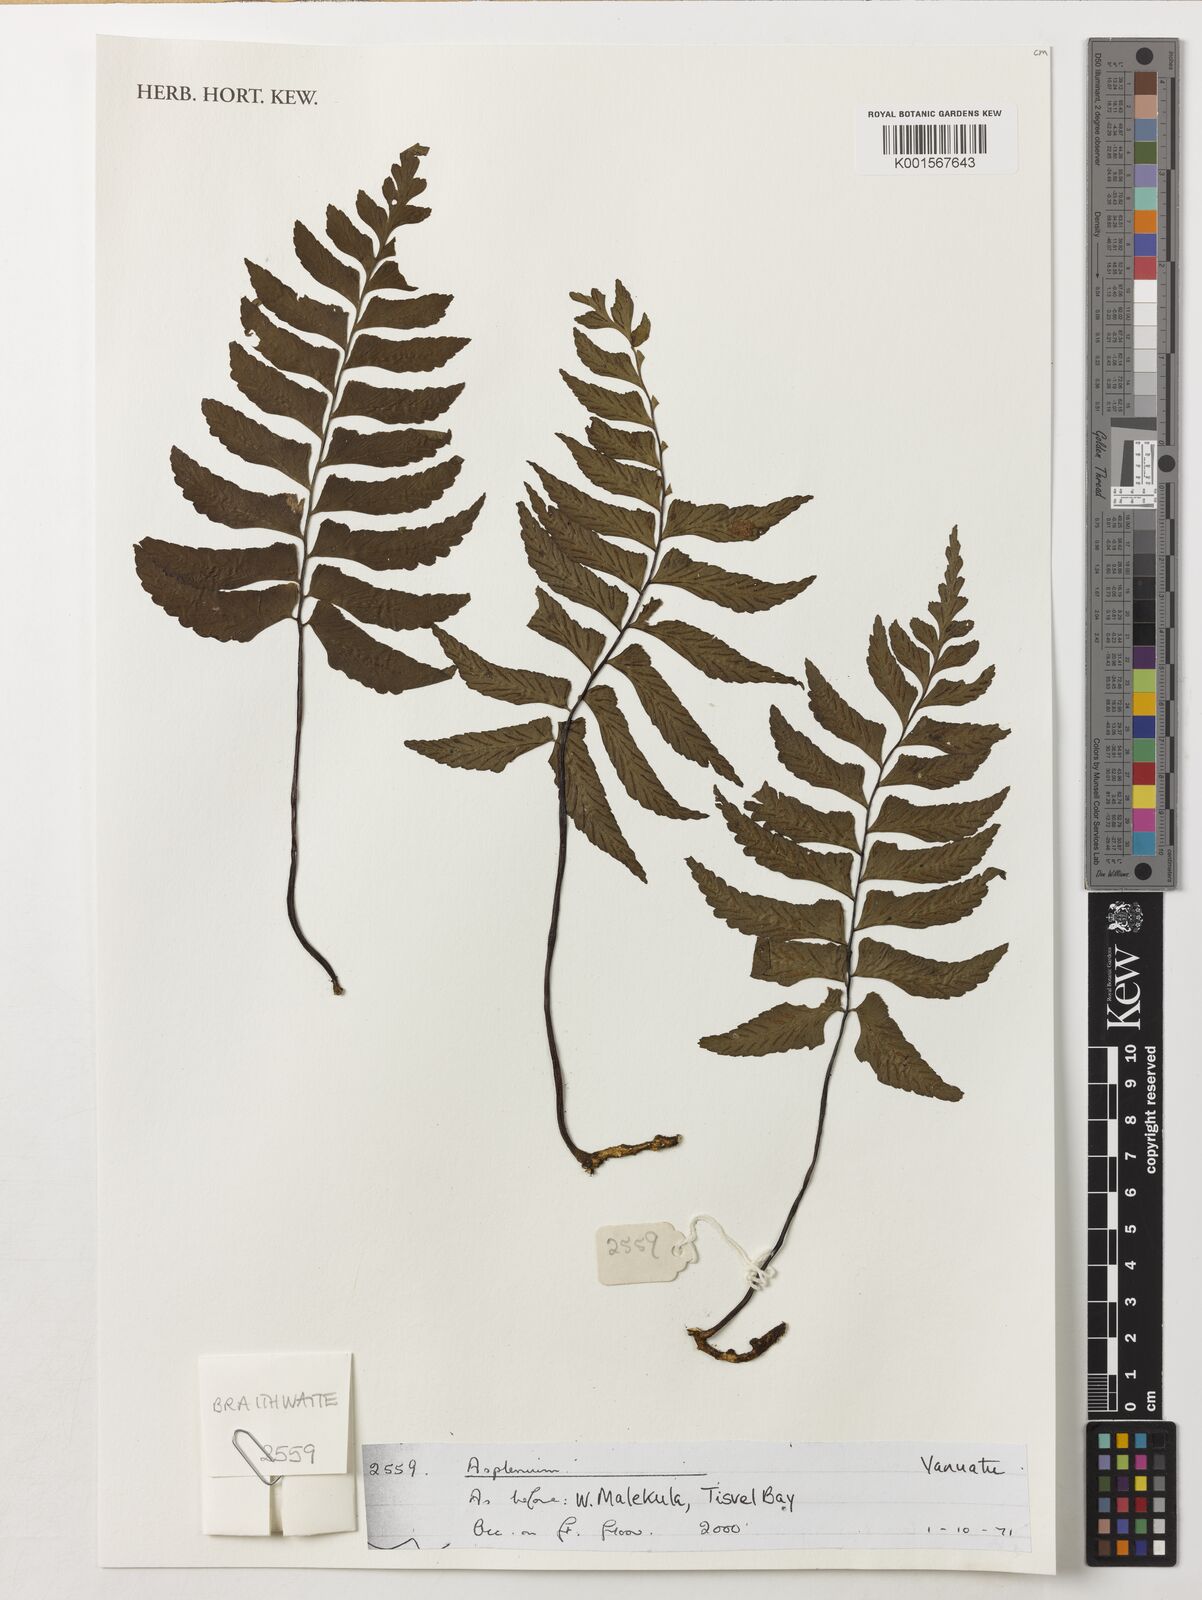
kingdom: Plantae
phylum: Tracheophyta
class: Polypodiopsida
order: Polypodiales
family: Aspleniaceae
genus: Asplenium
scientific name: Asplenium
